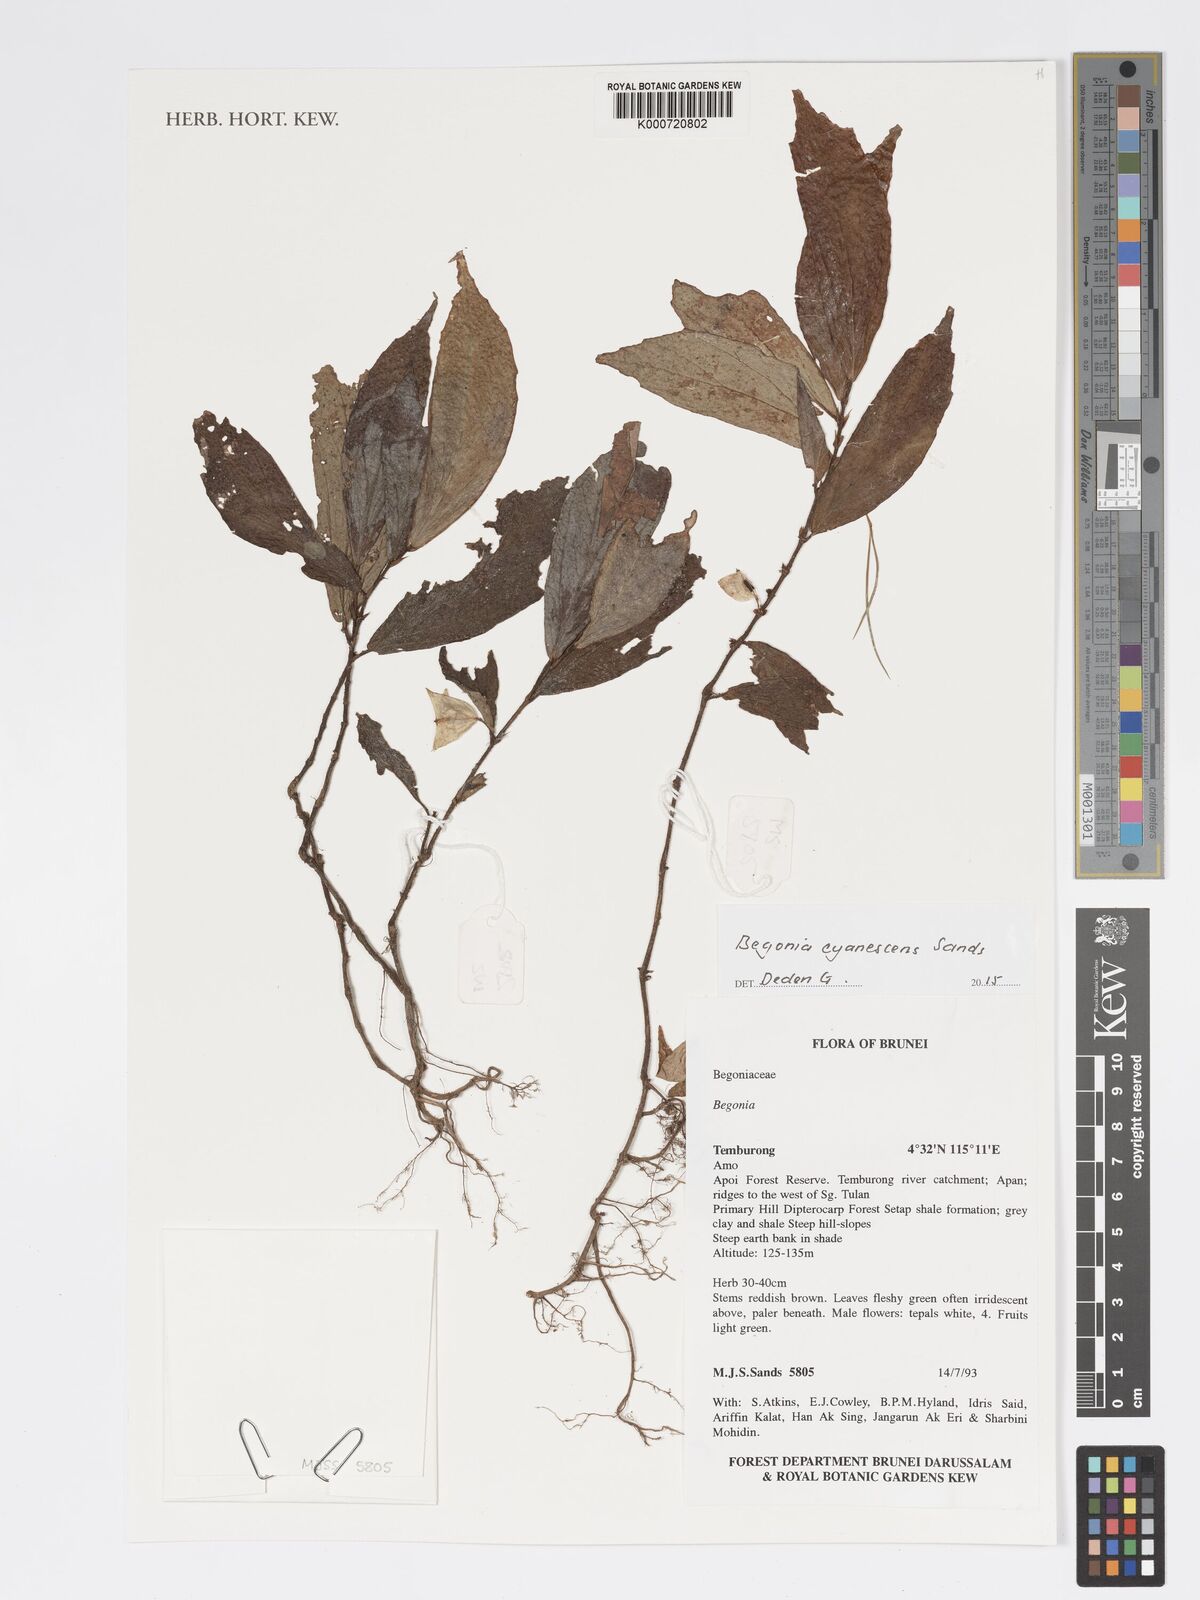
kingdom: Plantae
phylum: Tracheophyta
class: Magnoliopsida
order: Cucurbitales
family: Begoniaceae
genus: Begonia
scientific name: Begonia cyanescens
